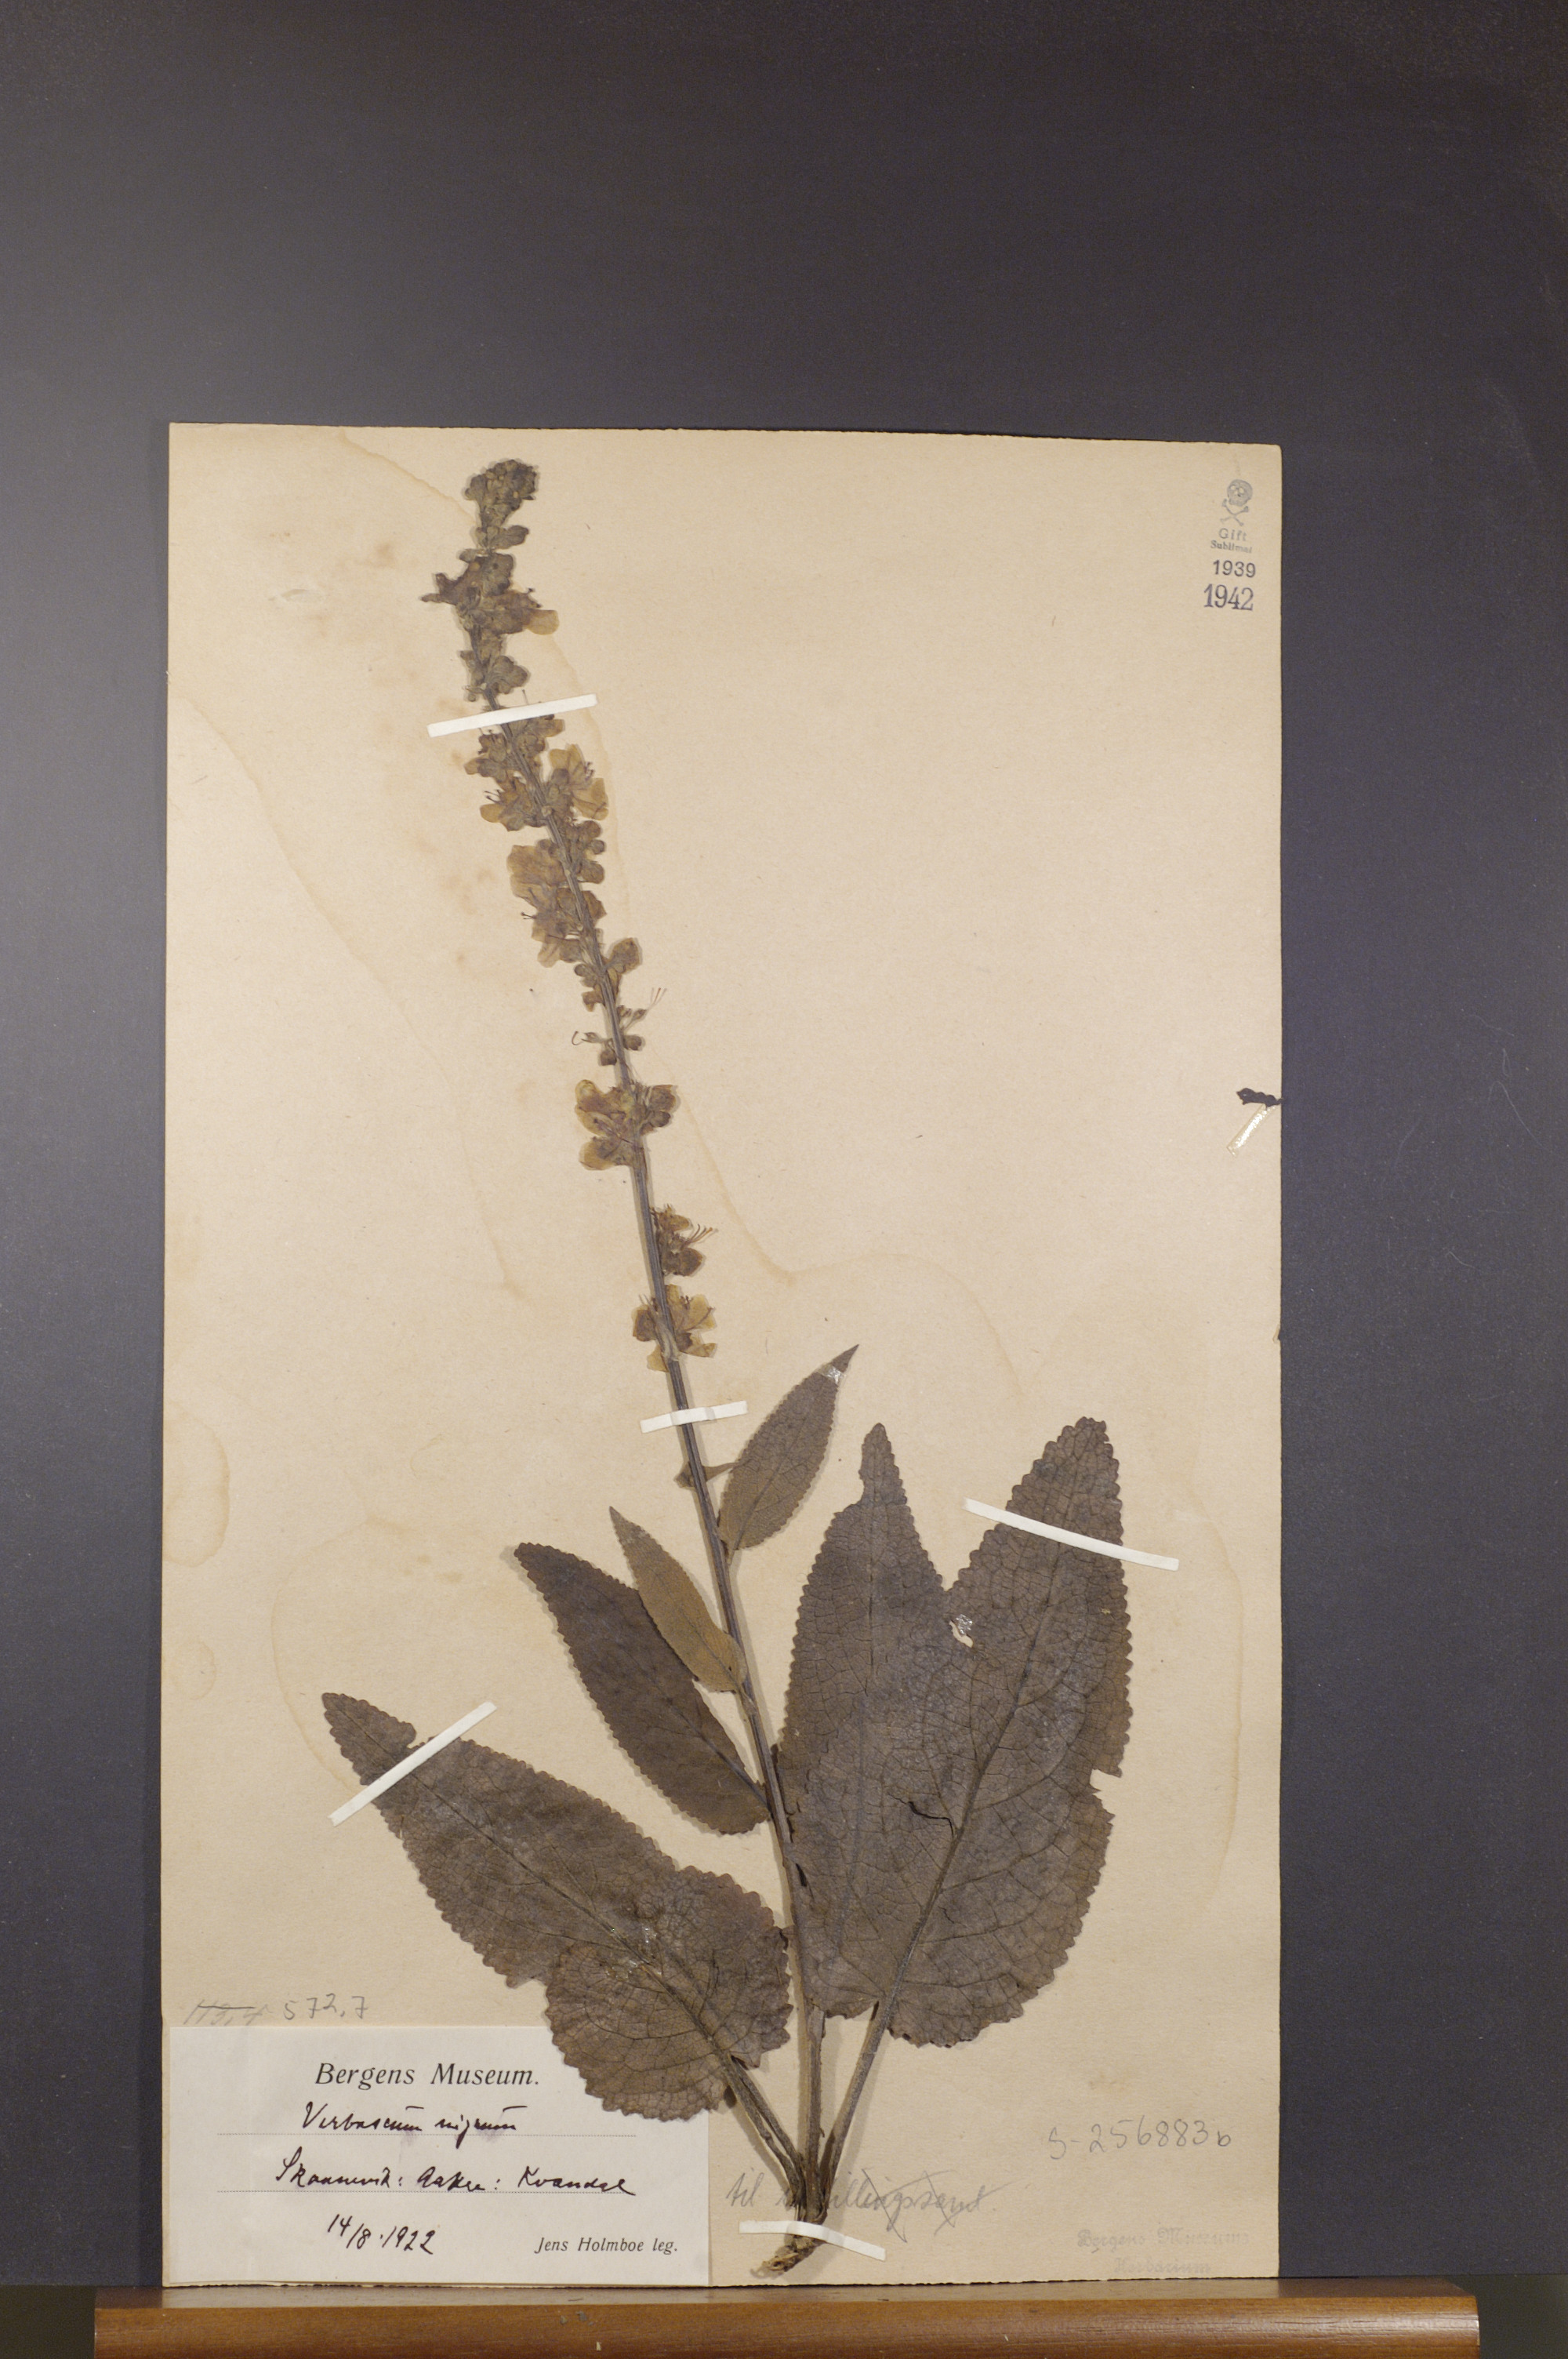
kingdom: Plantae
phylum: Tracheophyta
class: Magnoliopsida
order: Lamiales
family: Scrophulariaceae
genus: Verbascum
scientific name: Verbascum nigrum
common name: Dark mullein
